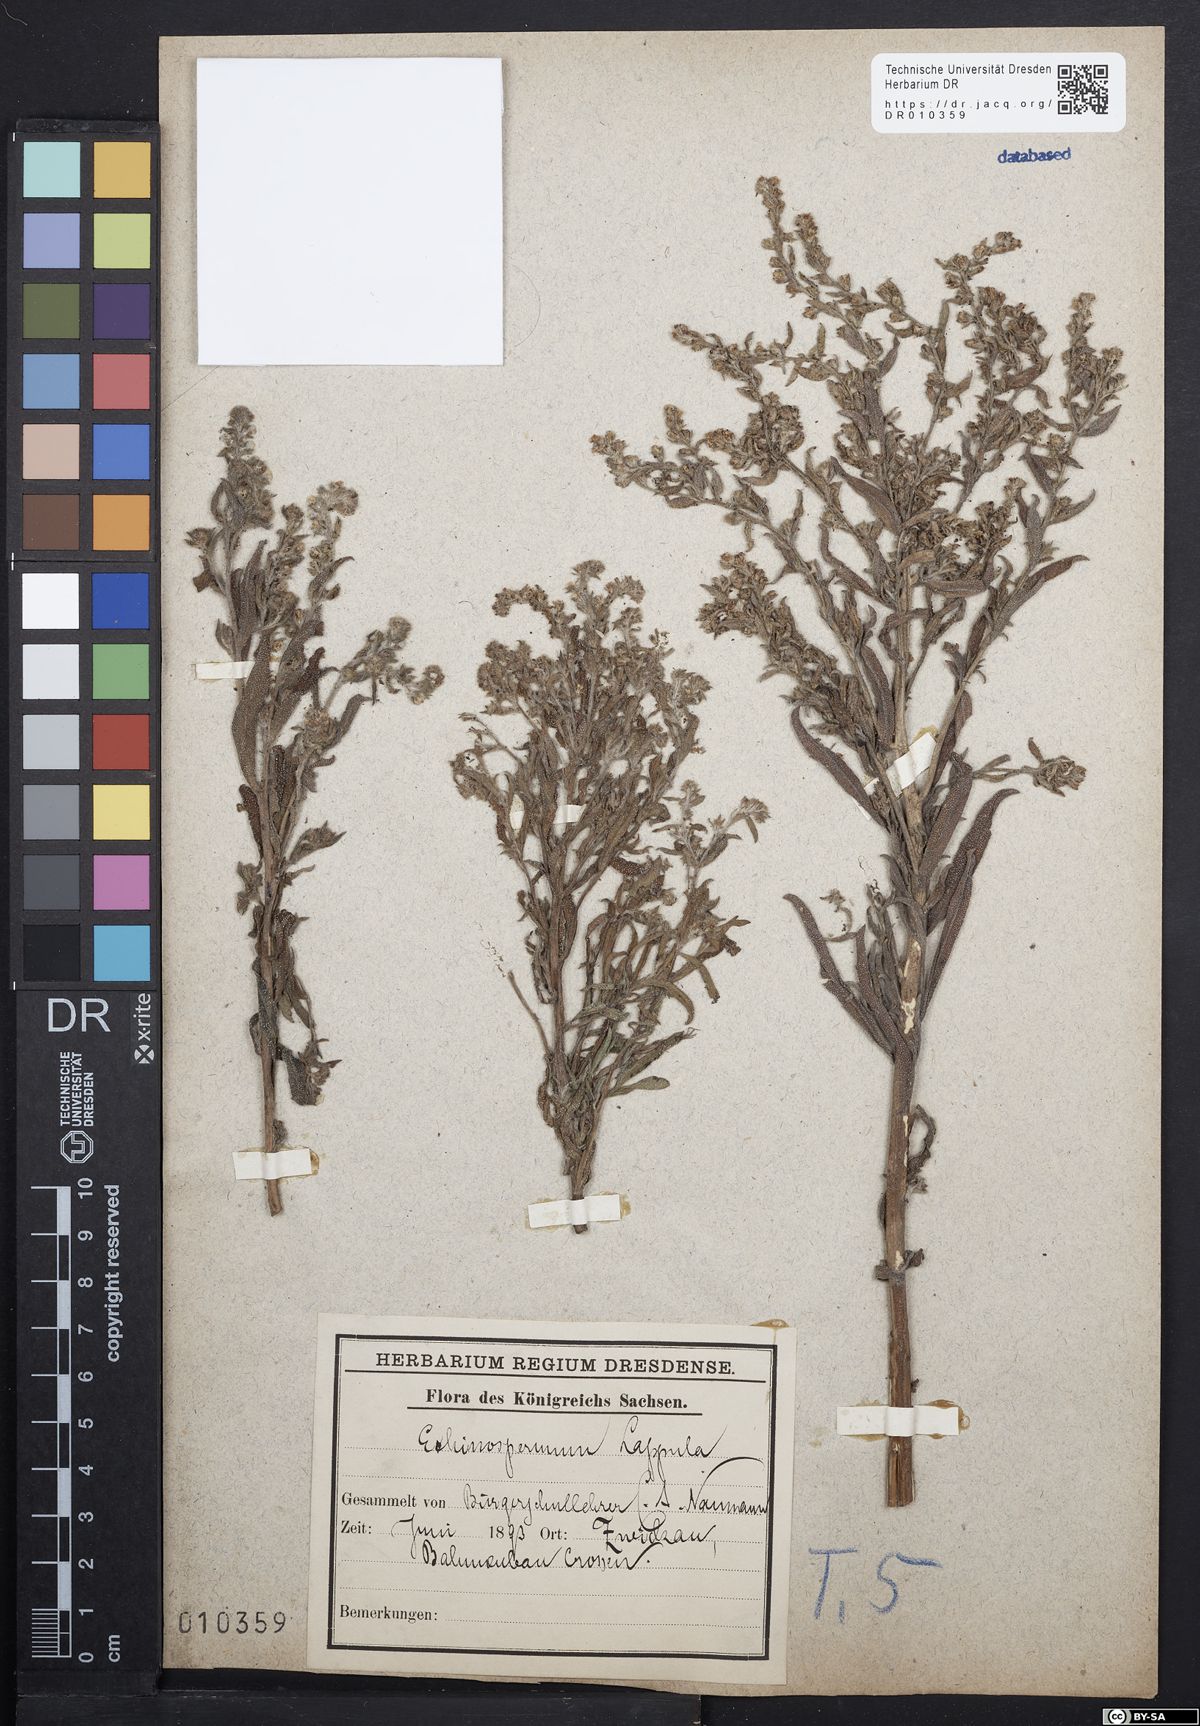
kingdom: Plantae
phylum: Tracheophyta
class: Magnoliopsida
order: Boraginales
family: Boraginaceae
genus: Lappula
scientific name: Lappula squarrosa
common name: European stickseed
